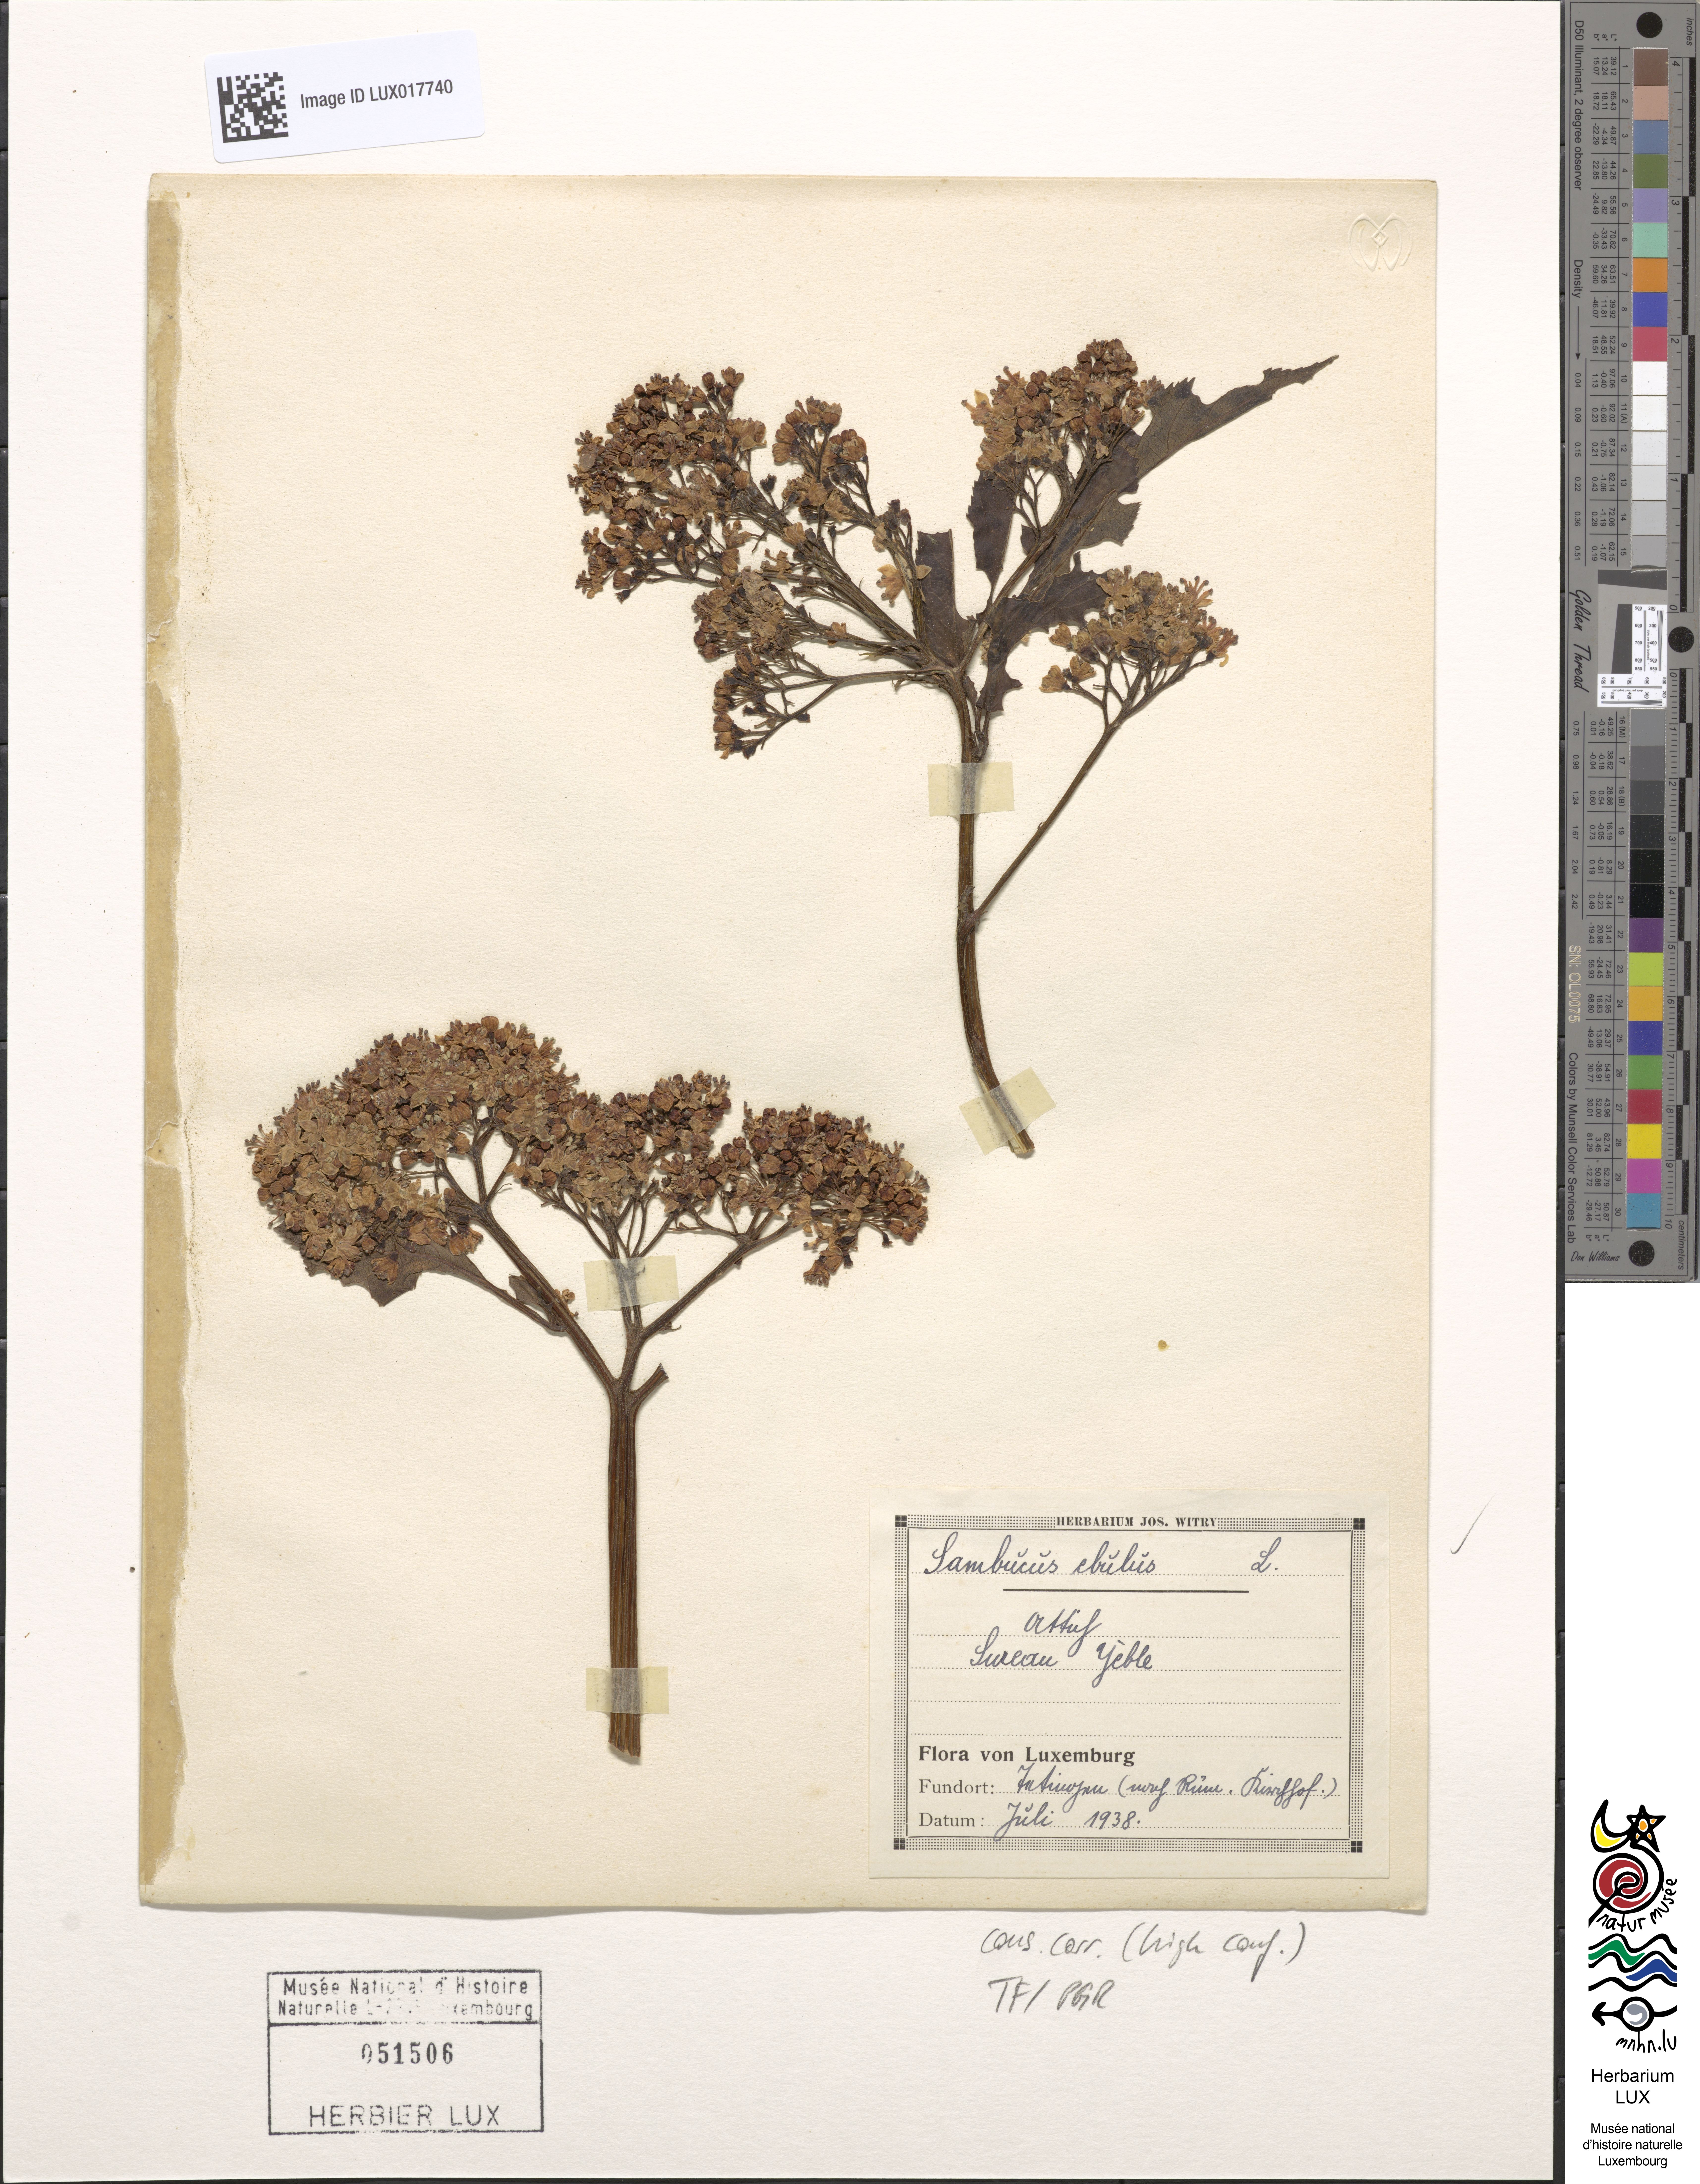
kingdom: Plantae
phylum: Tracheophyta
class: Magnoliopsida
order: Dipsacales
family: Viburnaceae
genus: Sambucus
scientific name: Sambucus ebulus
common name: Dwarf elder
